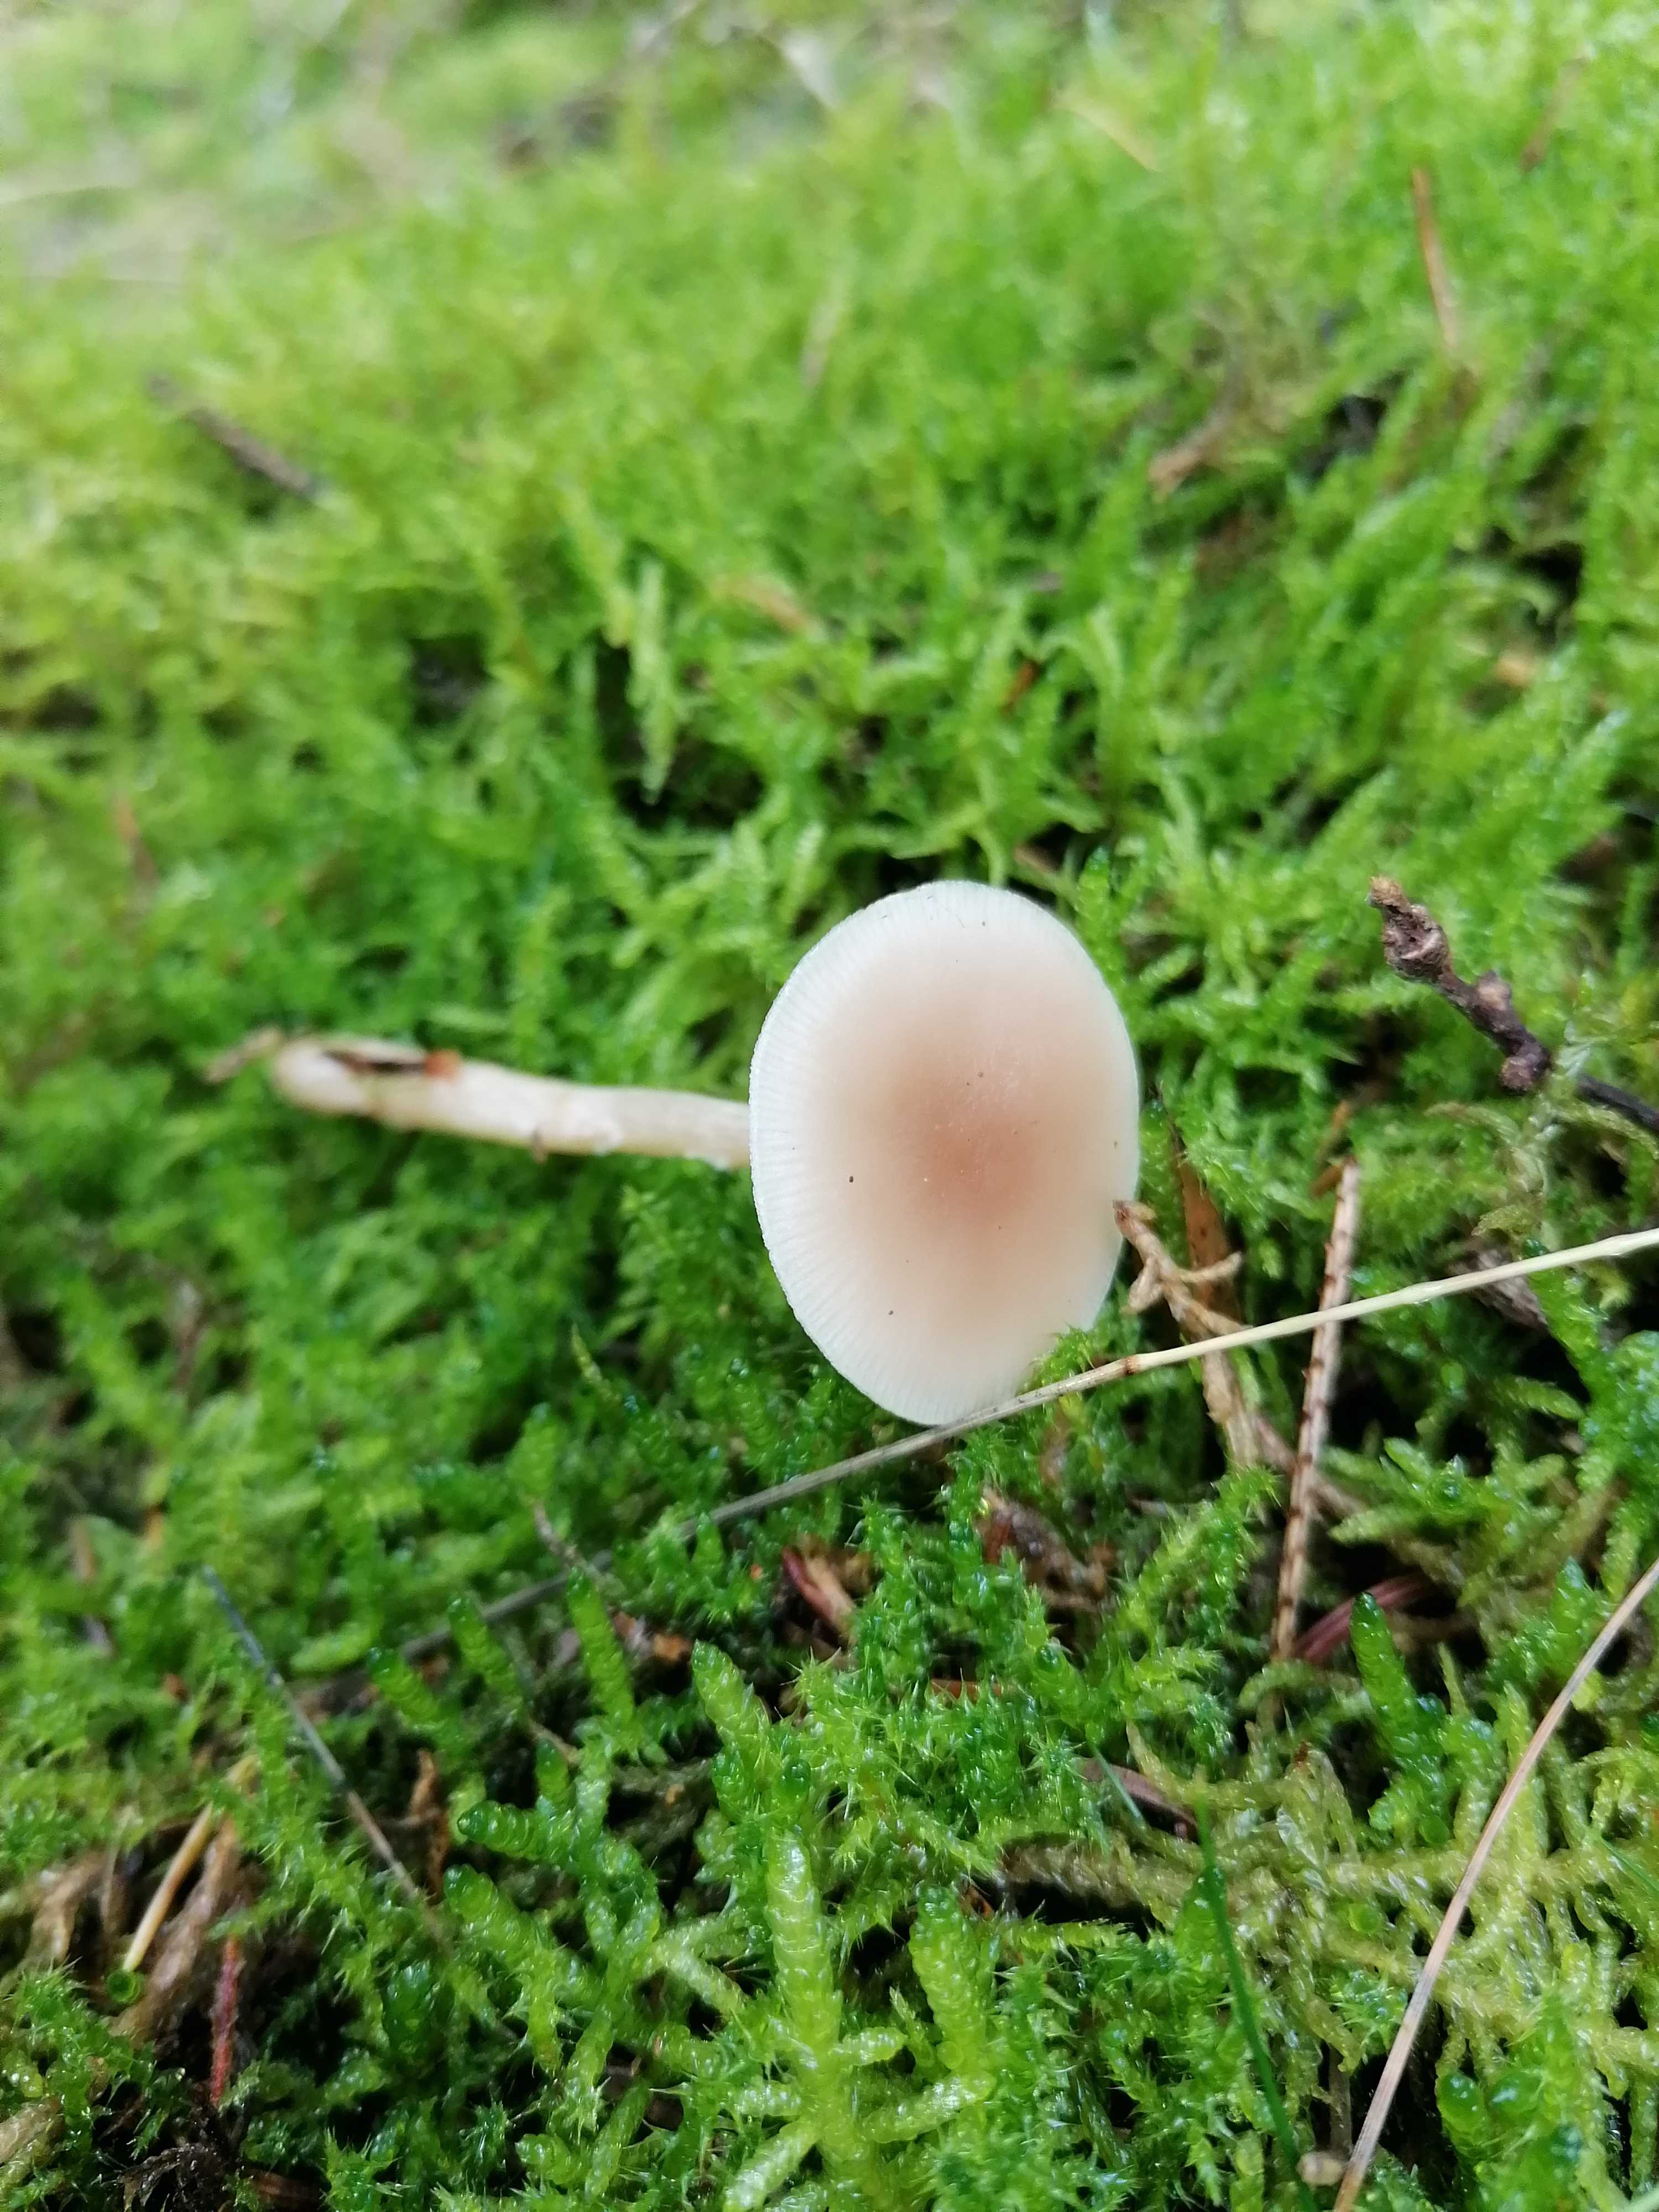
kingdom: Fungi
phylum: Basidiomycota
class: Agaricomycetes
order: Agaricales
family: Tricholomataceae
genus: Clitocybe
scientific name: Clitocybe fragrans
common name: vellugtende tragthat
